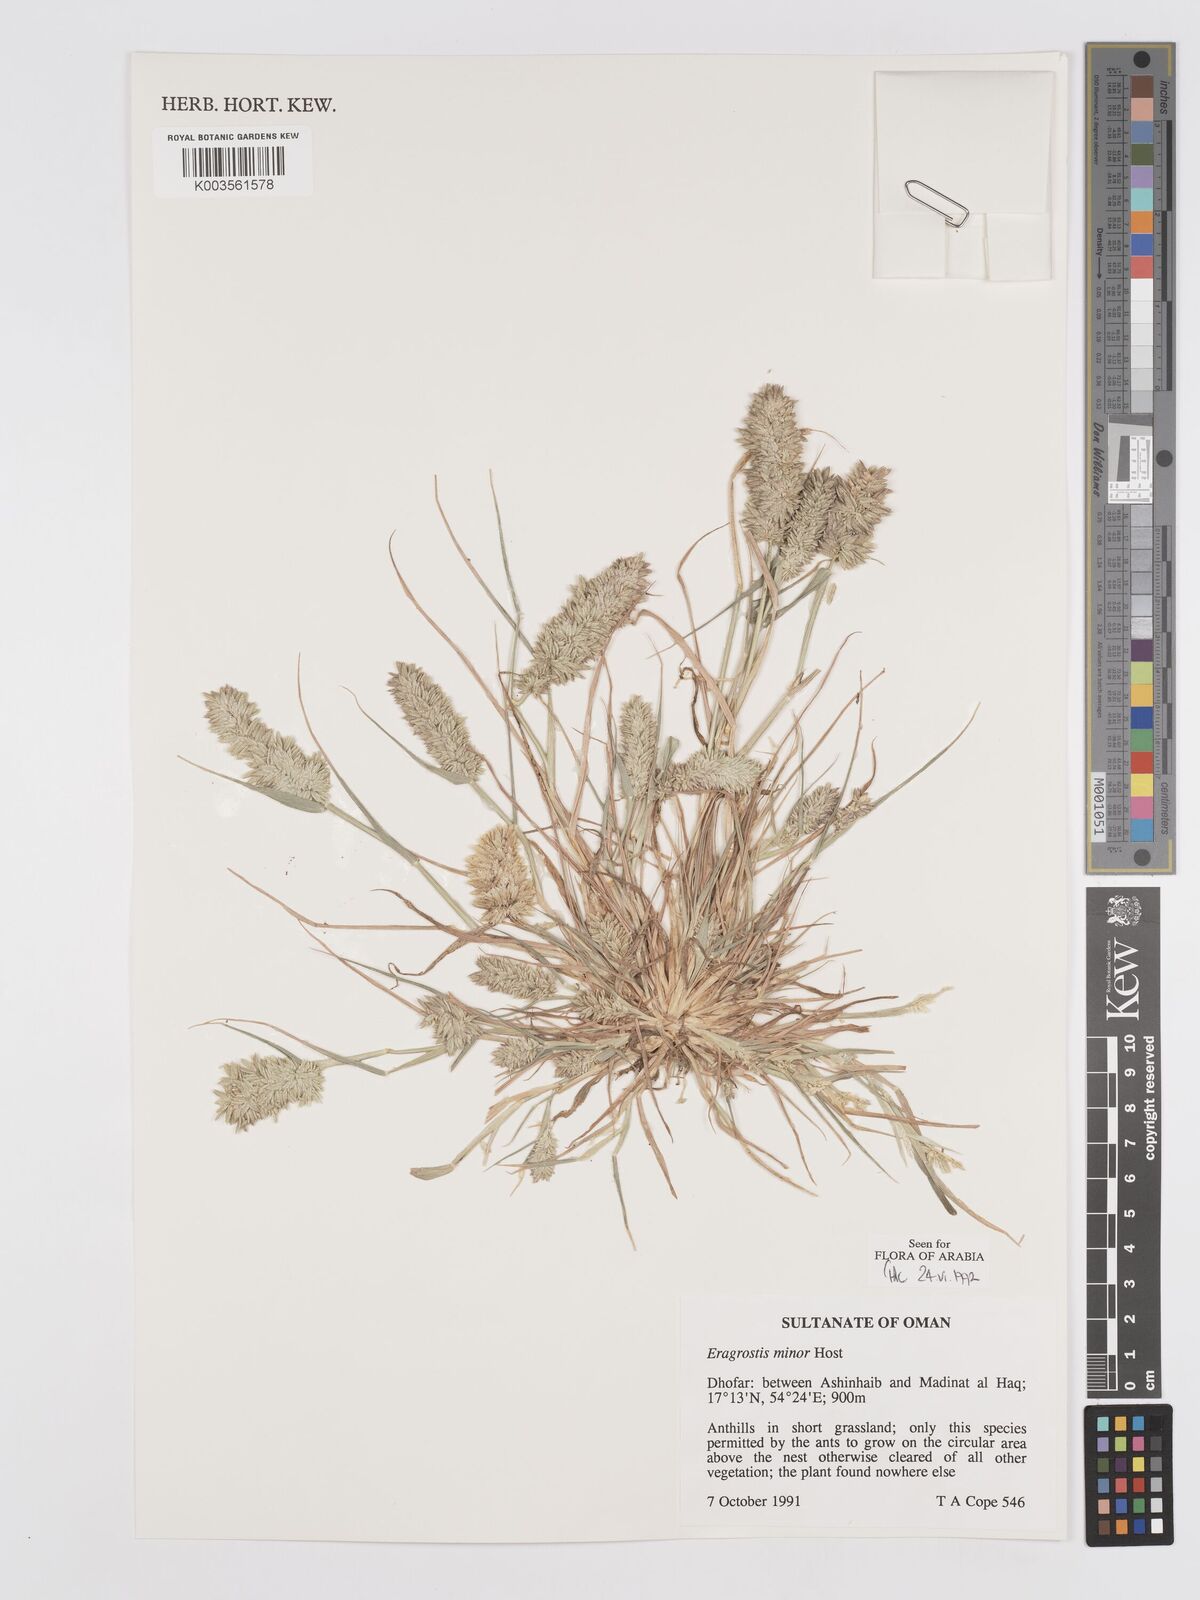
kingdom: Plantae
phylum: Tracheophyta
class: Liliopsida
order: Poales
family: Poaceae
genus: Eragrostis
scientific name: Eragrostis minor
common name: Small love-grass
